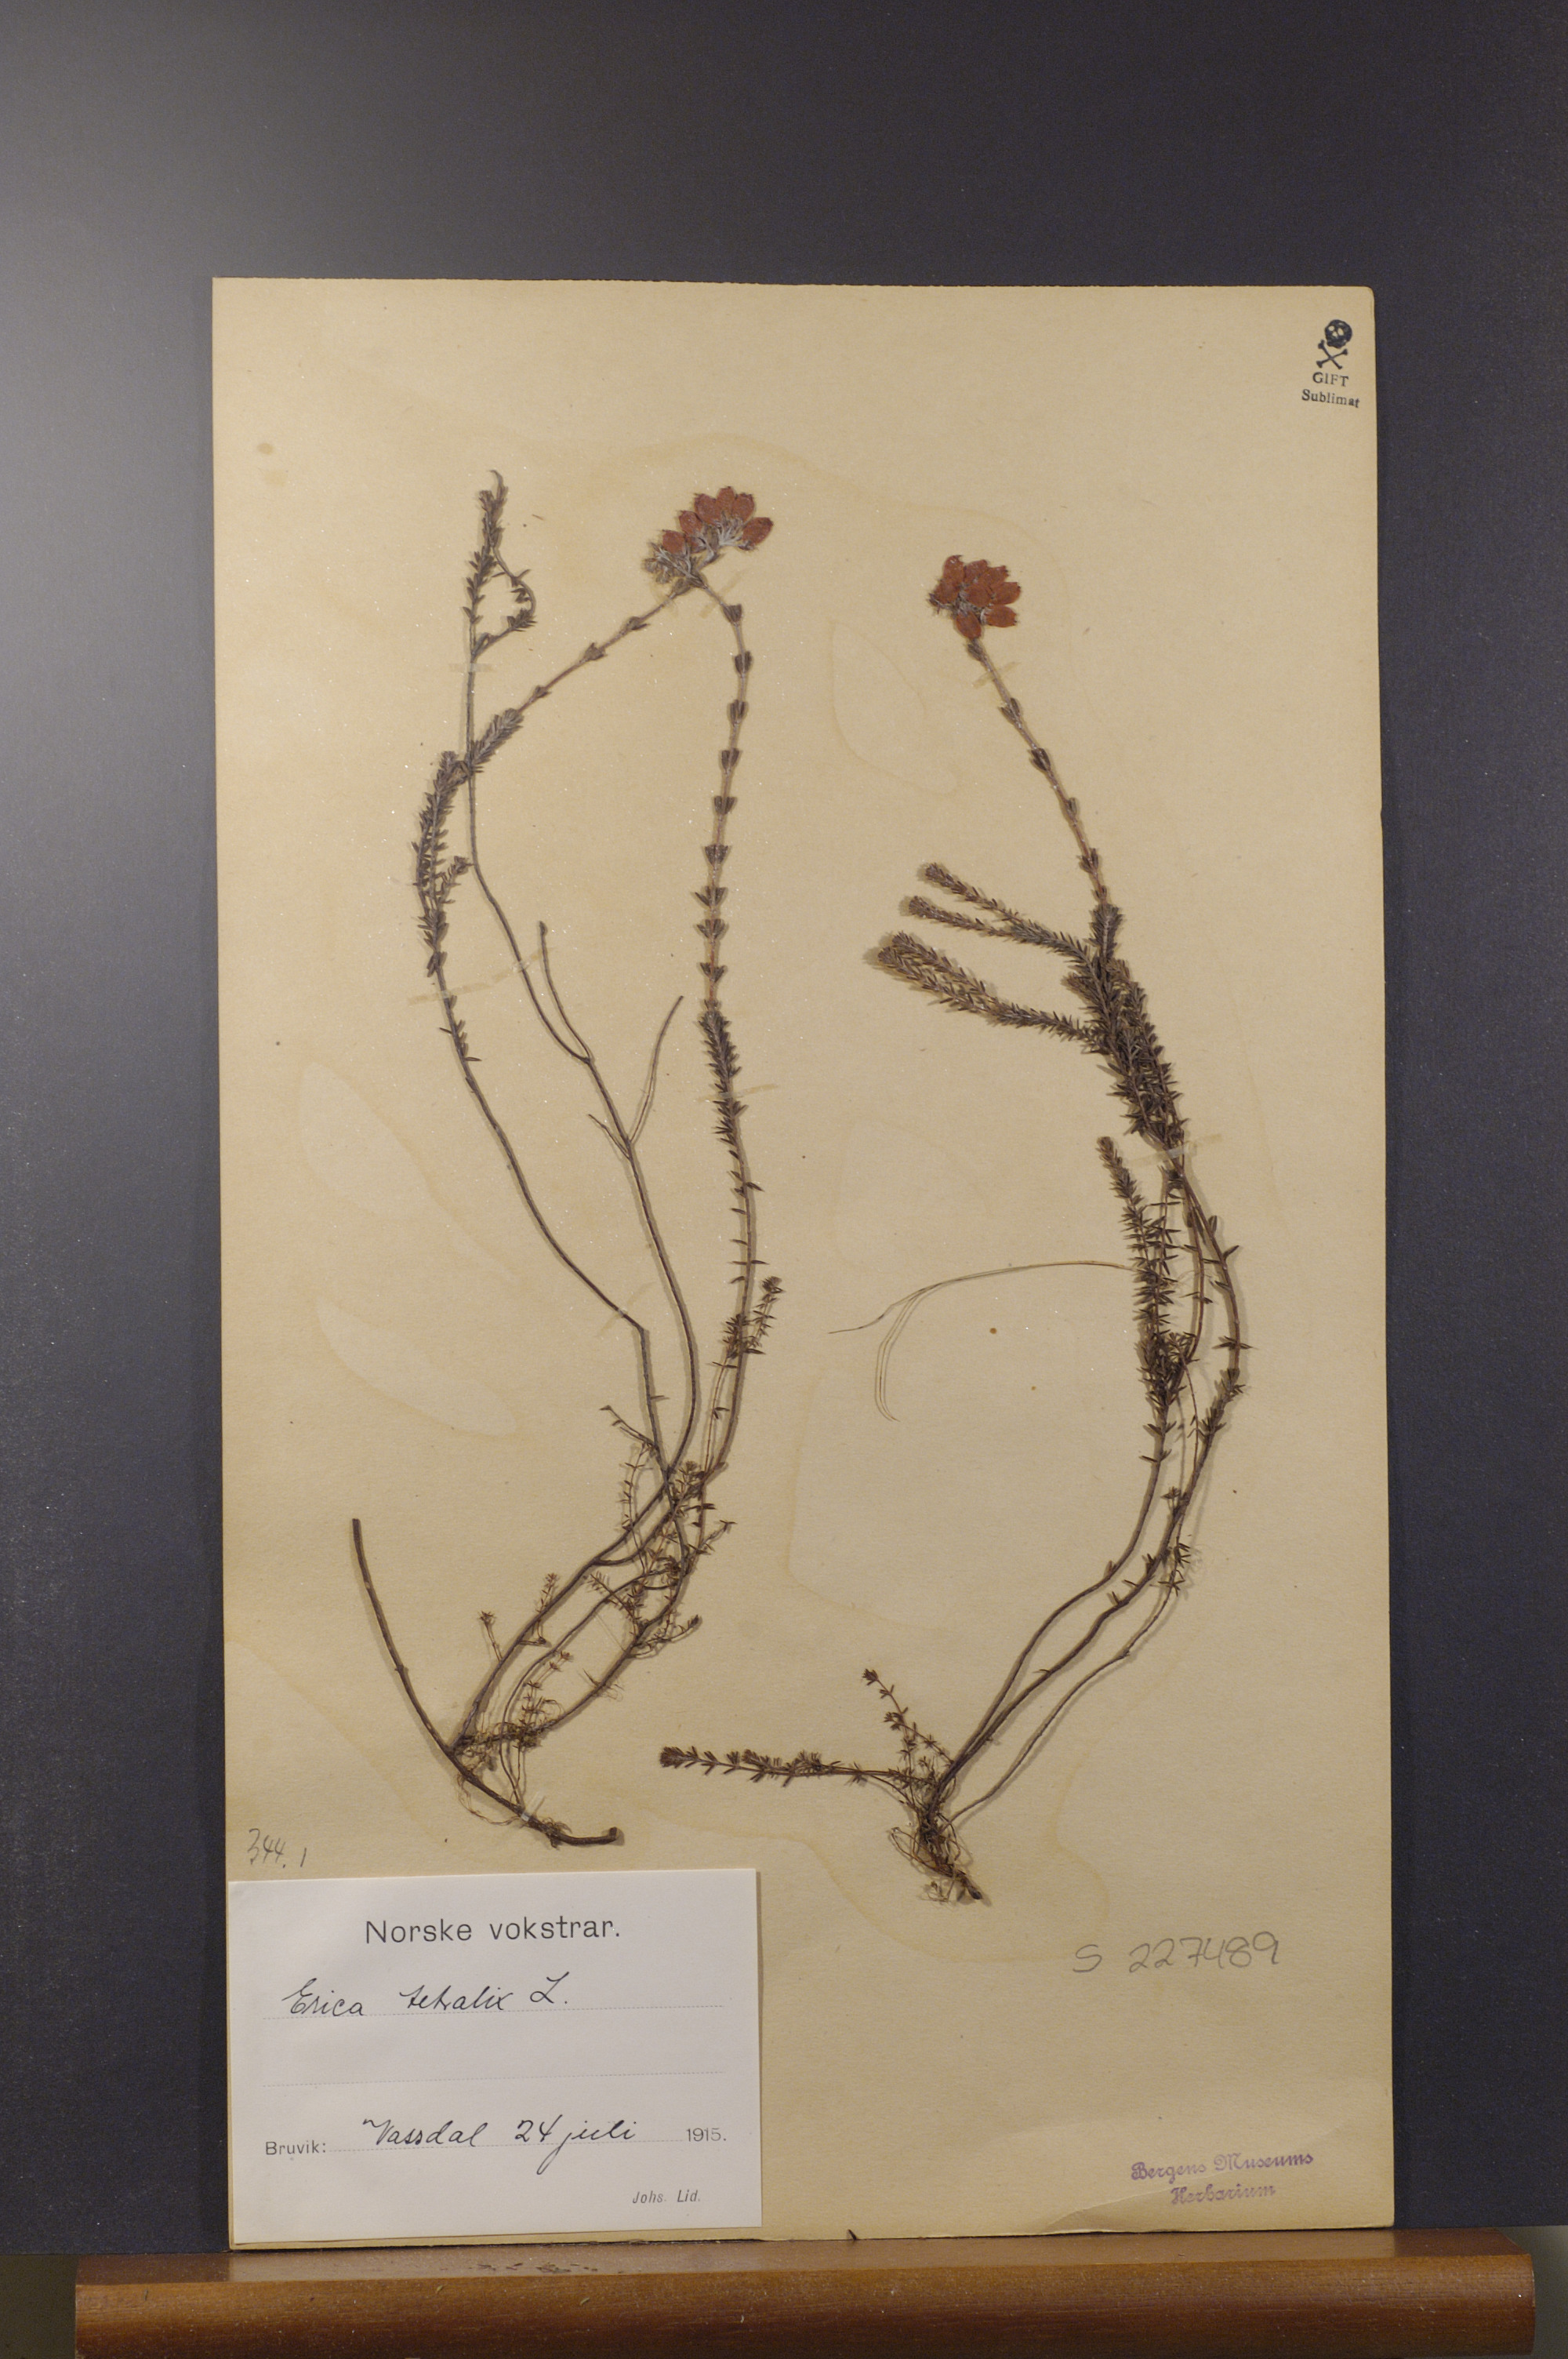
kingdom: Plantae
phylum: Tracheophyta
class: Magnoliopsida
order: Ericales
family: Ericaceae
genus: Erica
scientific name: Erica tetralix
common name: Cross-leaved heath
